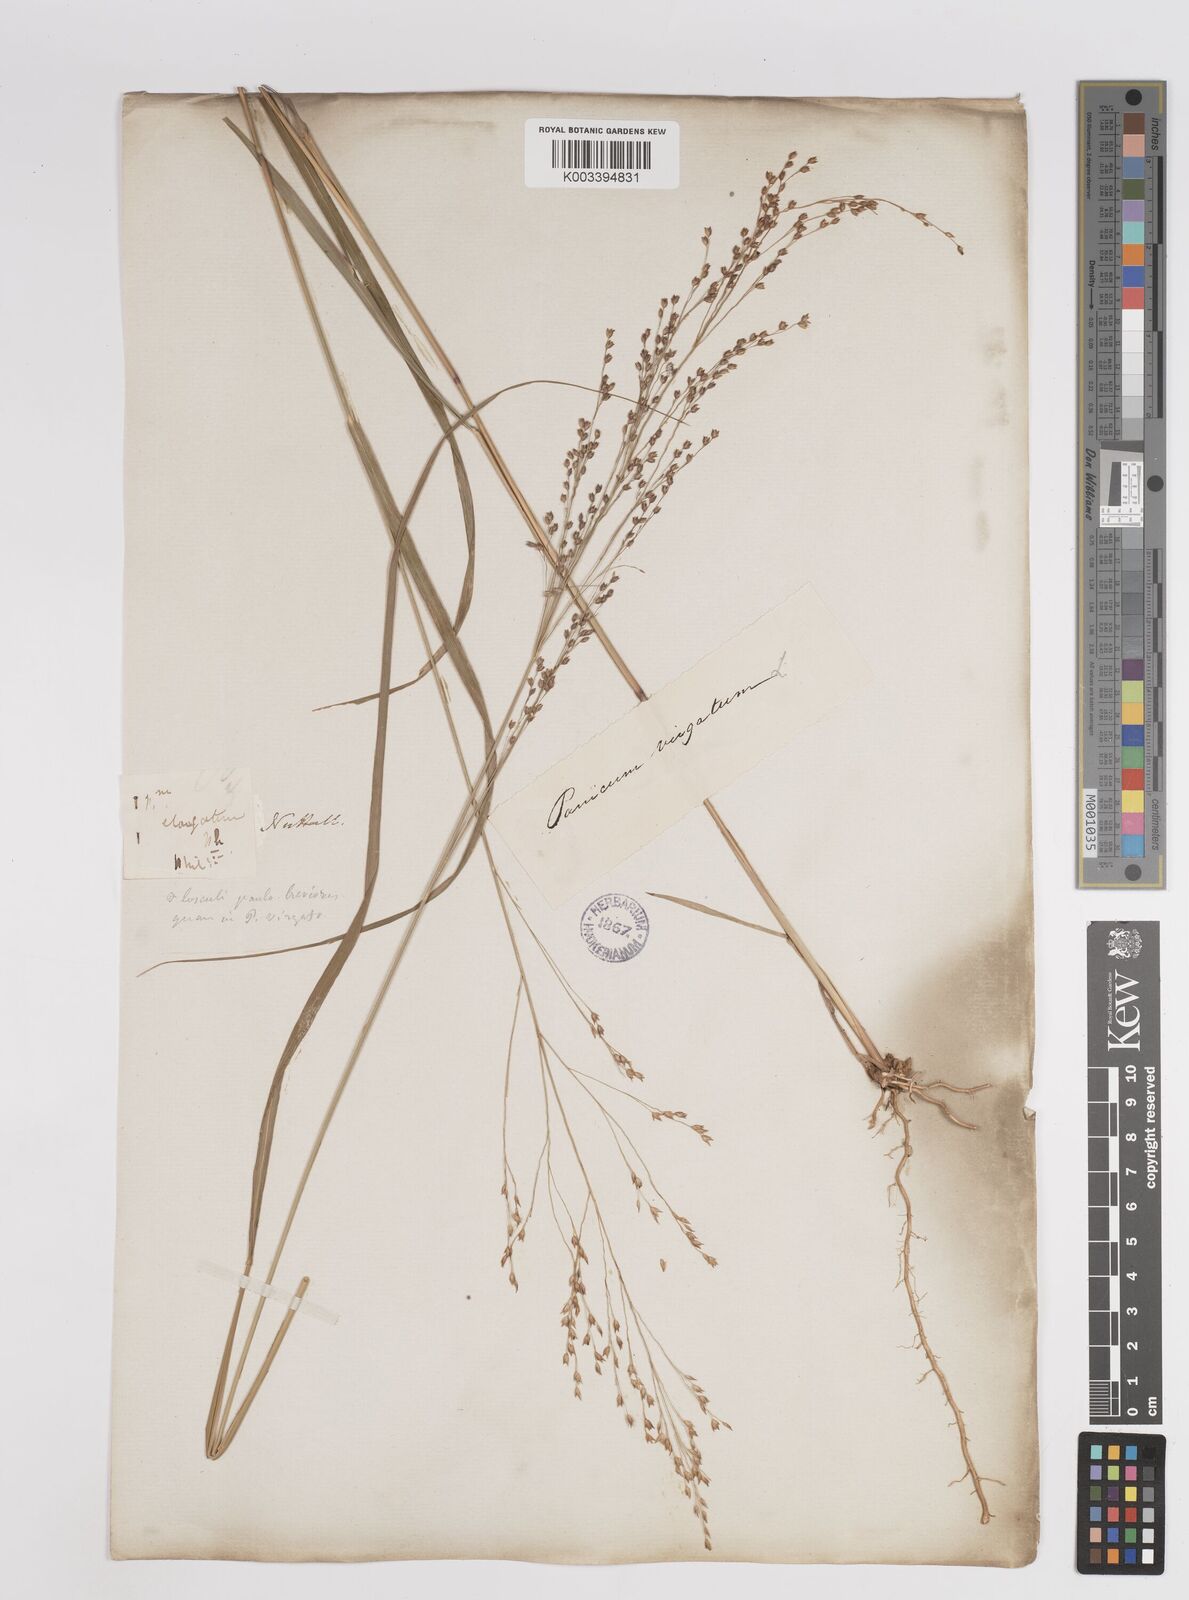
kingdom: Plantae
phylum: Tracheophyta
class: Liliopsida
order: Poales
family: Poaceae
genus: Panicum
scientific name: Panicum virgatum
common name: Switchgrass
